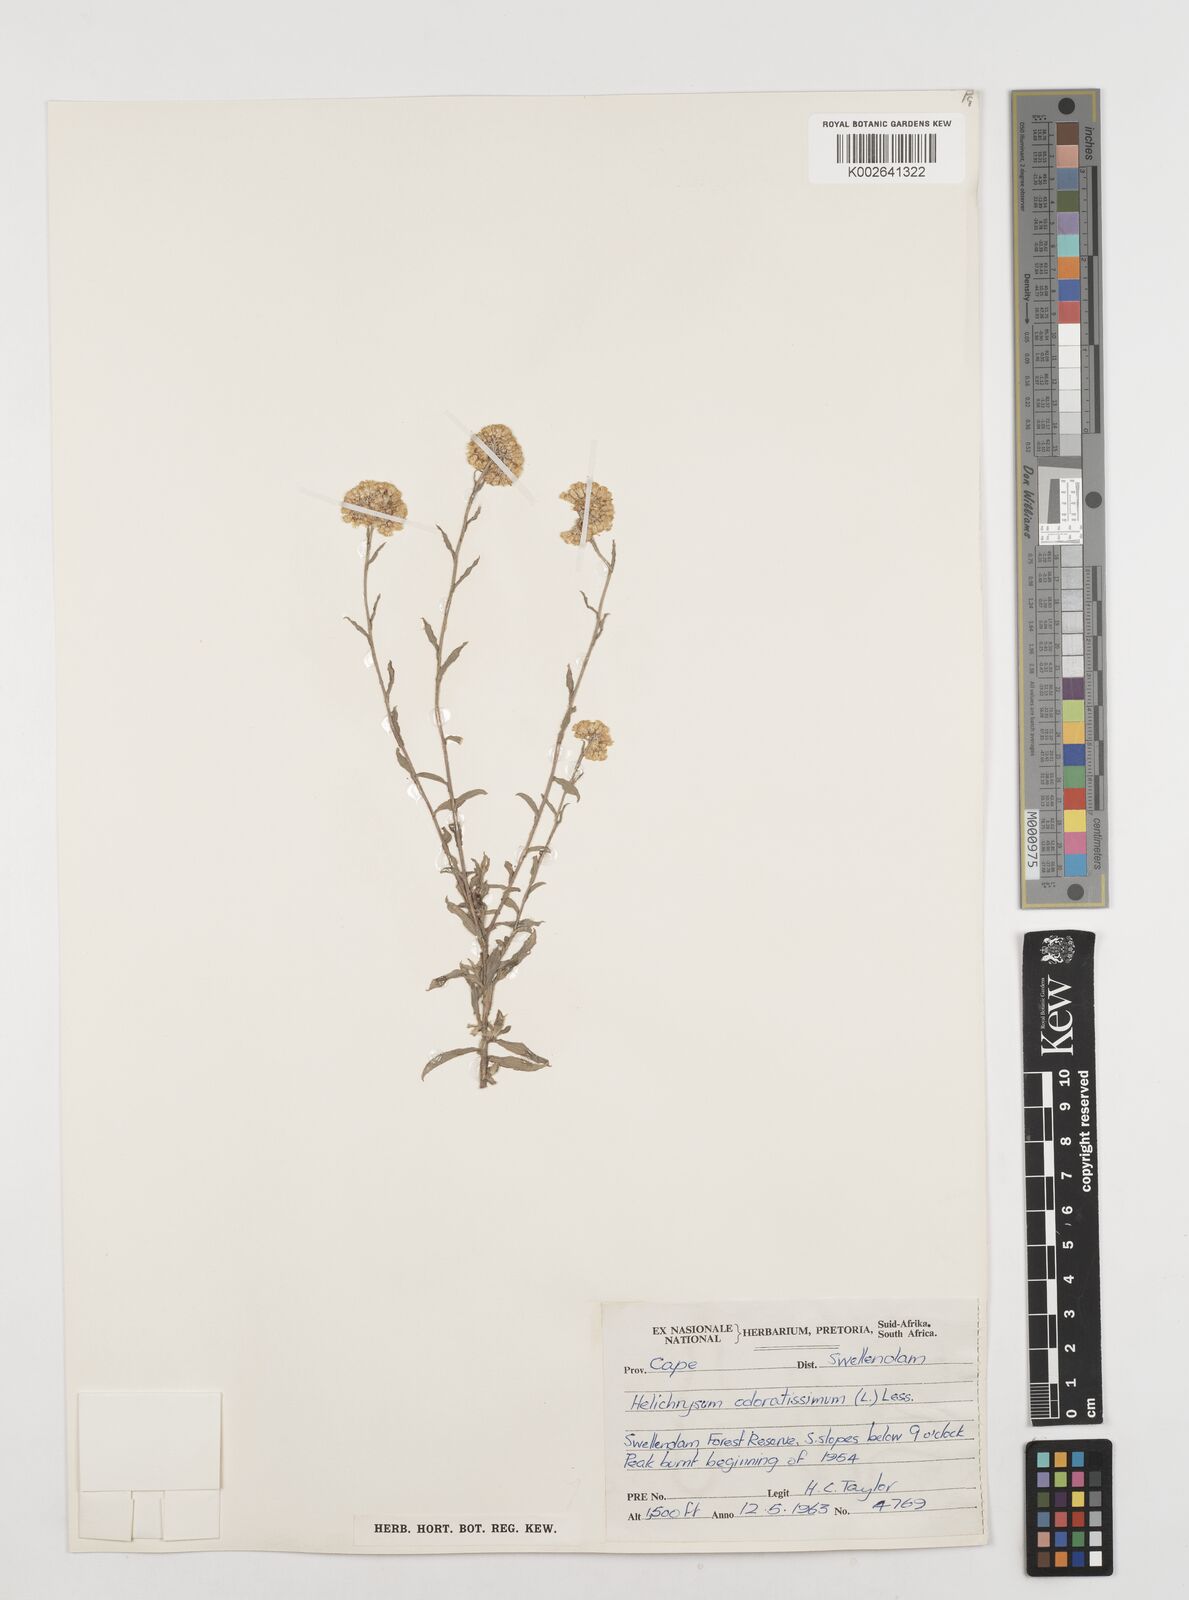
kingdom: Plantae
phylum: Tracheophyta
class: Magnoliopsida
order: Asterales
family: Asteraceae
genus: Helichrysum
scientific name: Helichrysum odoratissimum
